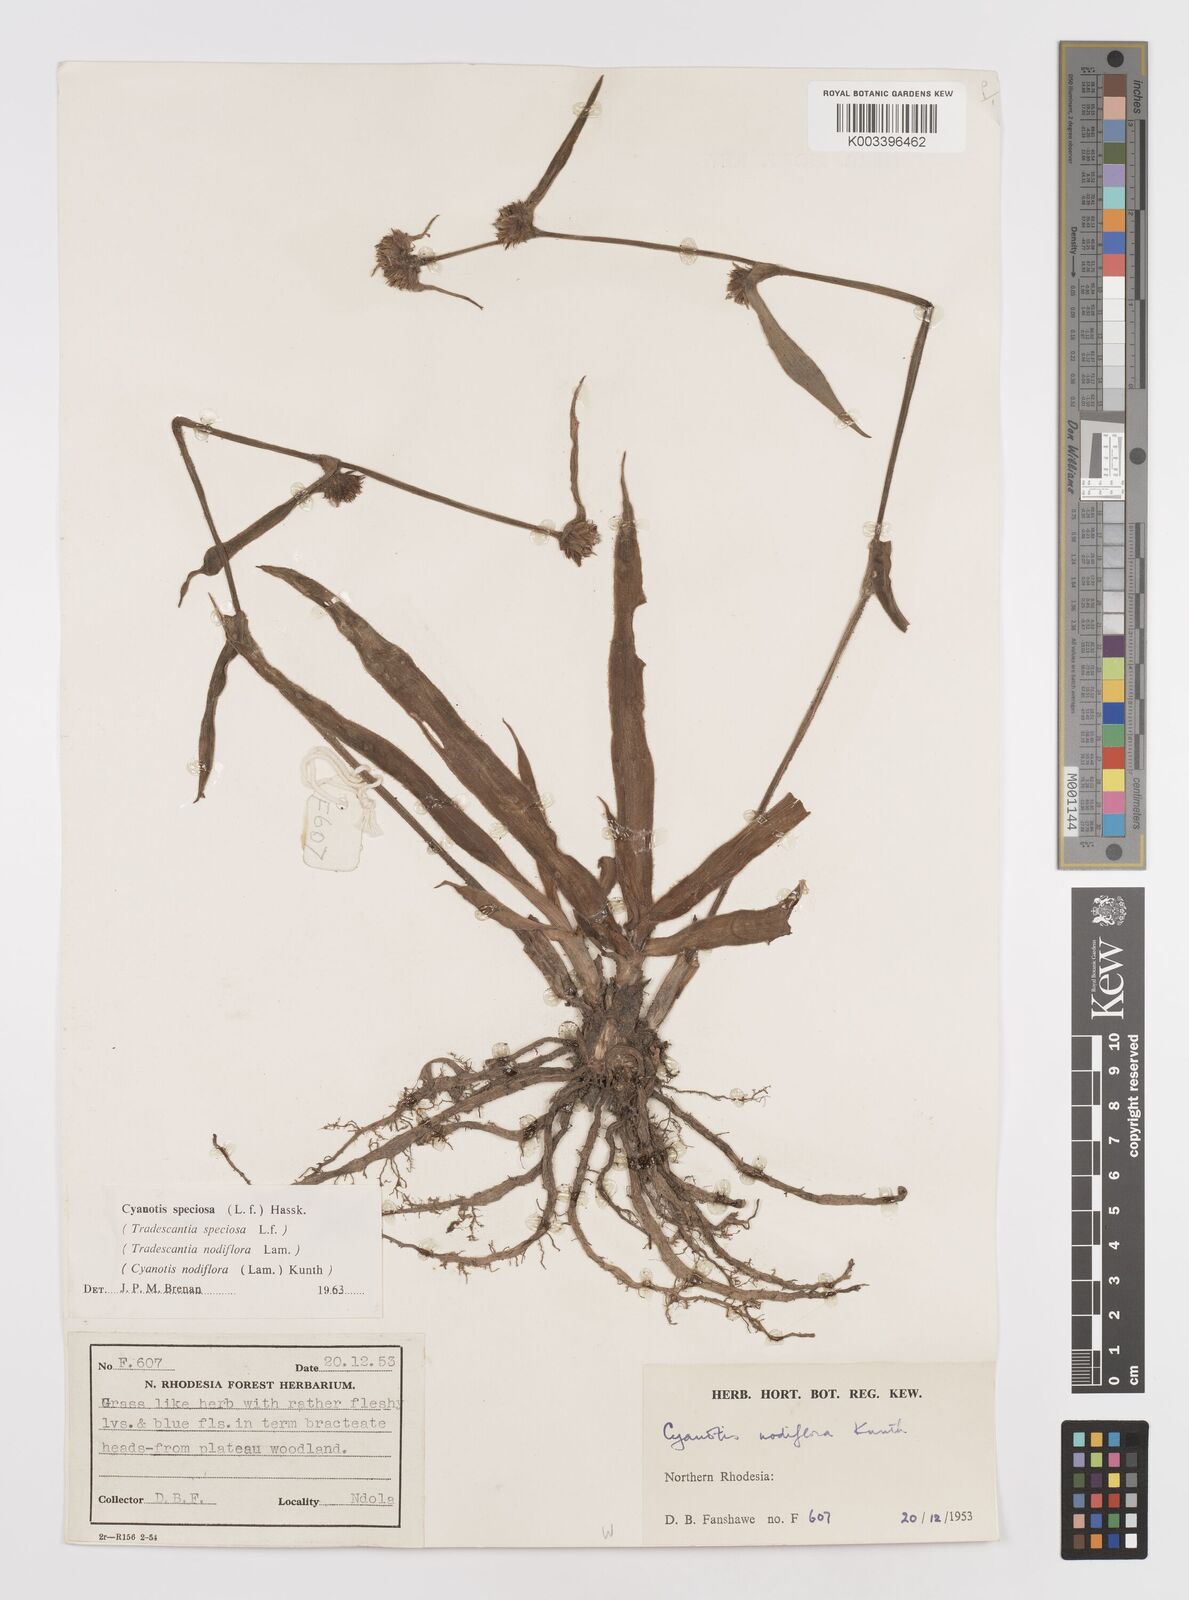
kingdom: Plantae
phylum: Tracheophyta
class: Liliopsida
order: Commelinales
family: Commelinaceae
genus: Cyanotis
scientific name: Cyanotis speciosa
